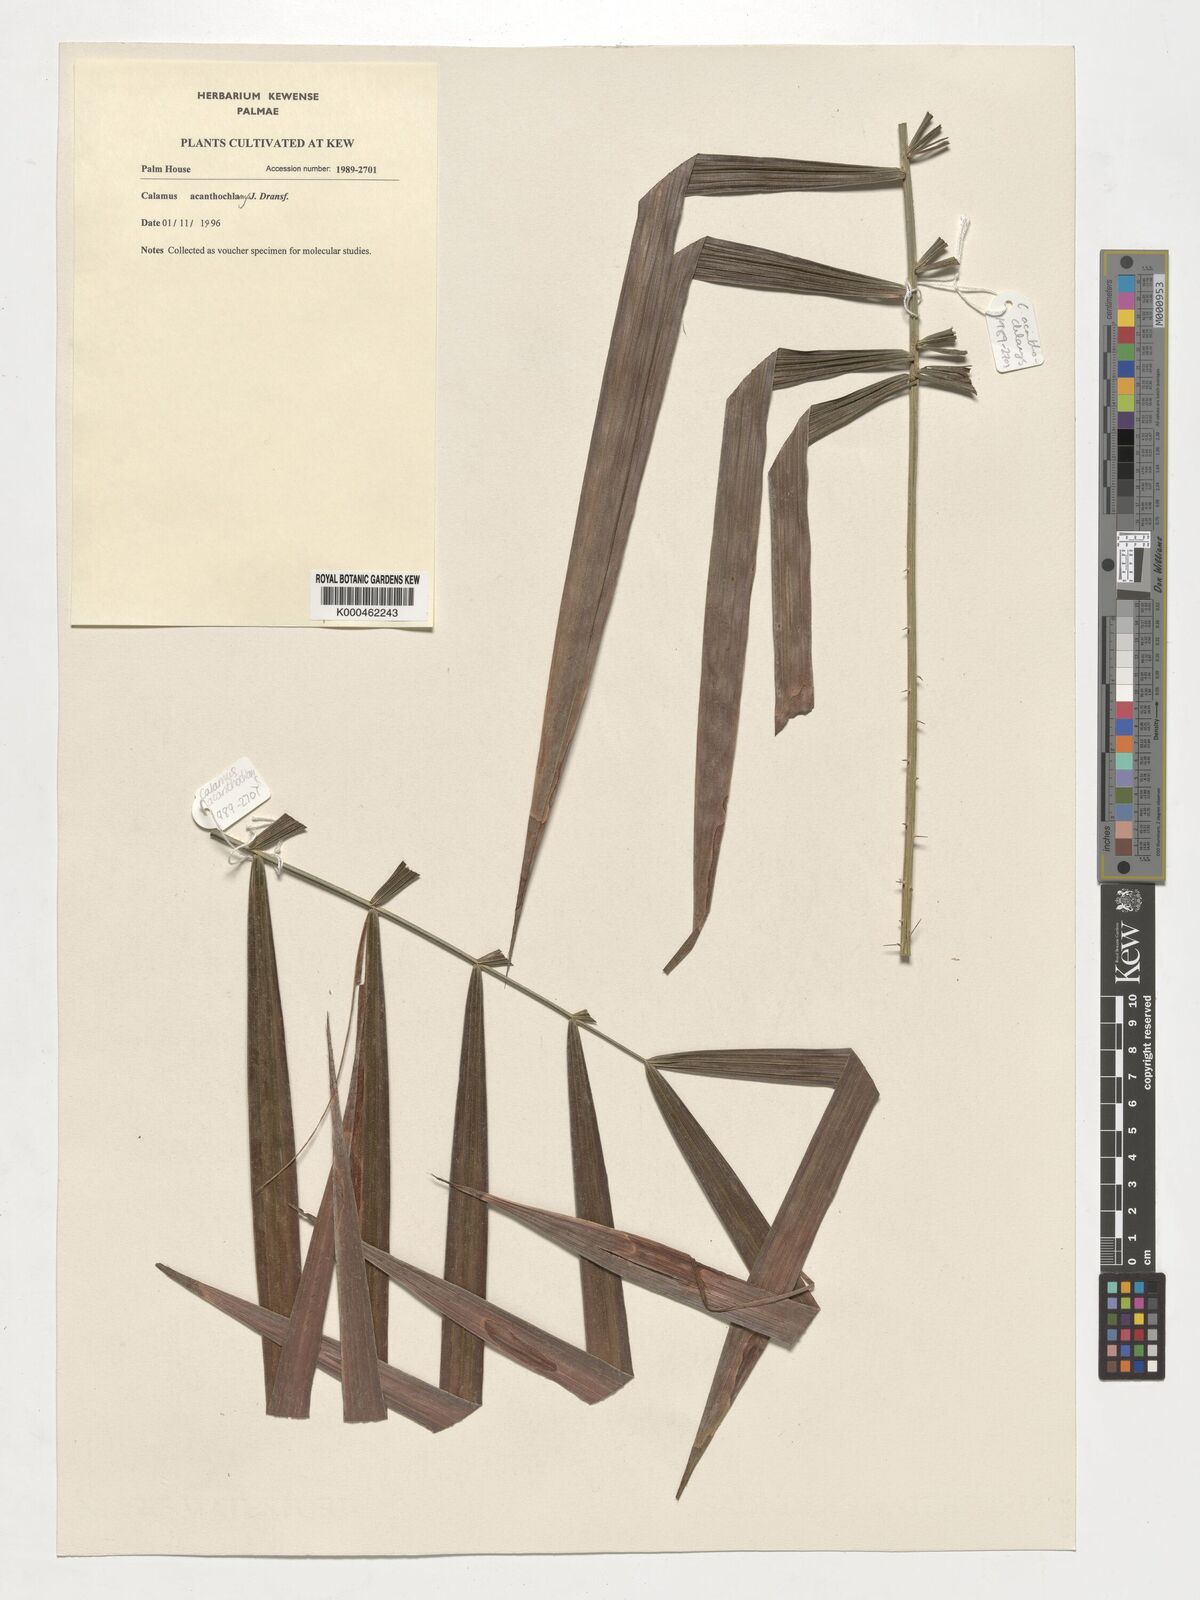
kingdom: Plantae
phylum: Tracheophyta
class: Liliopsida
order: Arecales
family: Arecaceae
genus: Calamus
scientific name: Calamus acanthochlamys
